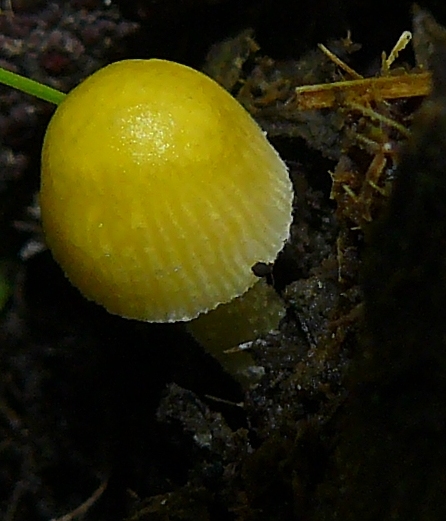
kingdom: Fungi
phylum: Basidiomycota
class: Agaricomycetes
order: Agaricales
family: Bolbitiaceae
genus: Bolbitius
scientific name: Bolbitius titubans
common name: almindelig gulhat
